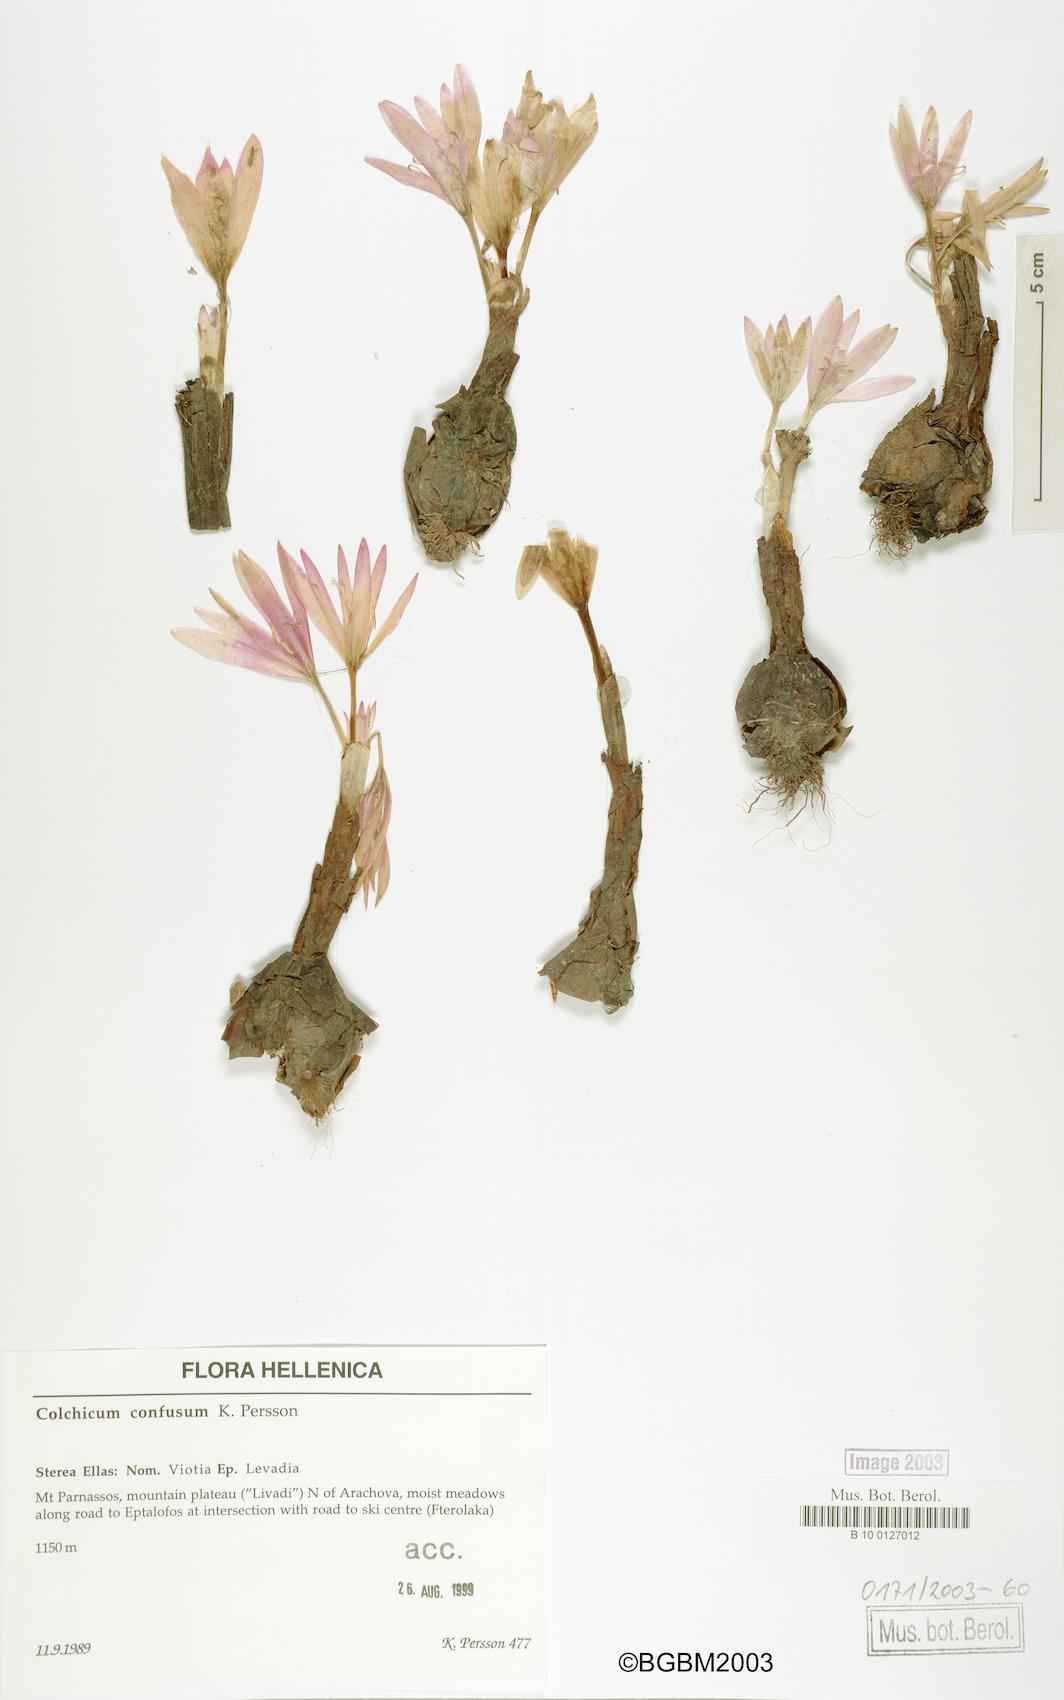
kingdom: Plantae
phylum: Tracheophyta
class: Liliopsida
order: Liliales
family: Colchicaceae
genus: Colchicum
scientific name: Colchicum confusum
